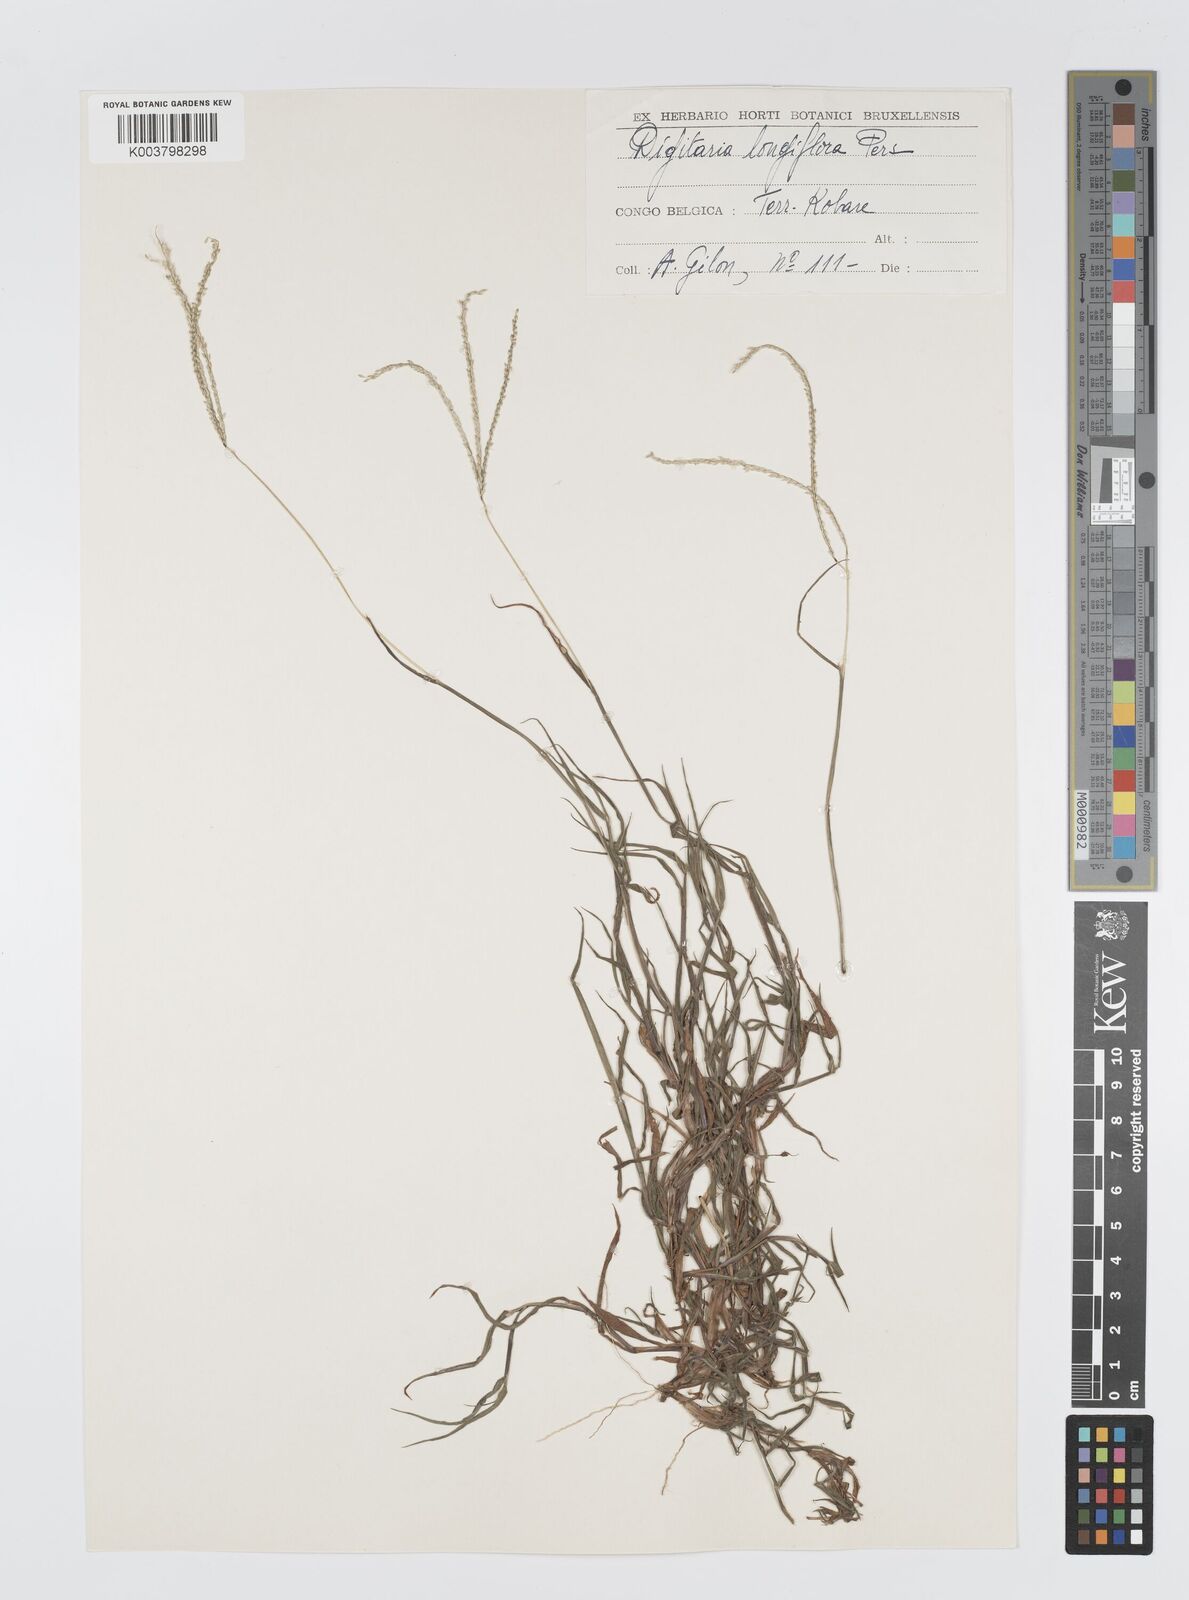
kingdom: Plantae
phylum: Tracheophyta
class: Liliopsida
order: Poales
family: Poaceae
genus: Digitaria
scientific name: Digitaria longiflora
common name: Wire crabgrass
